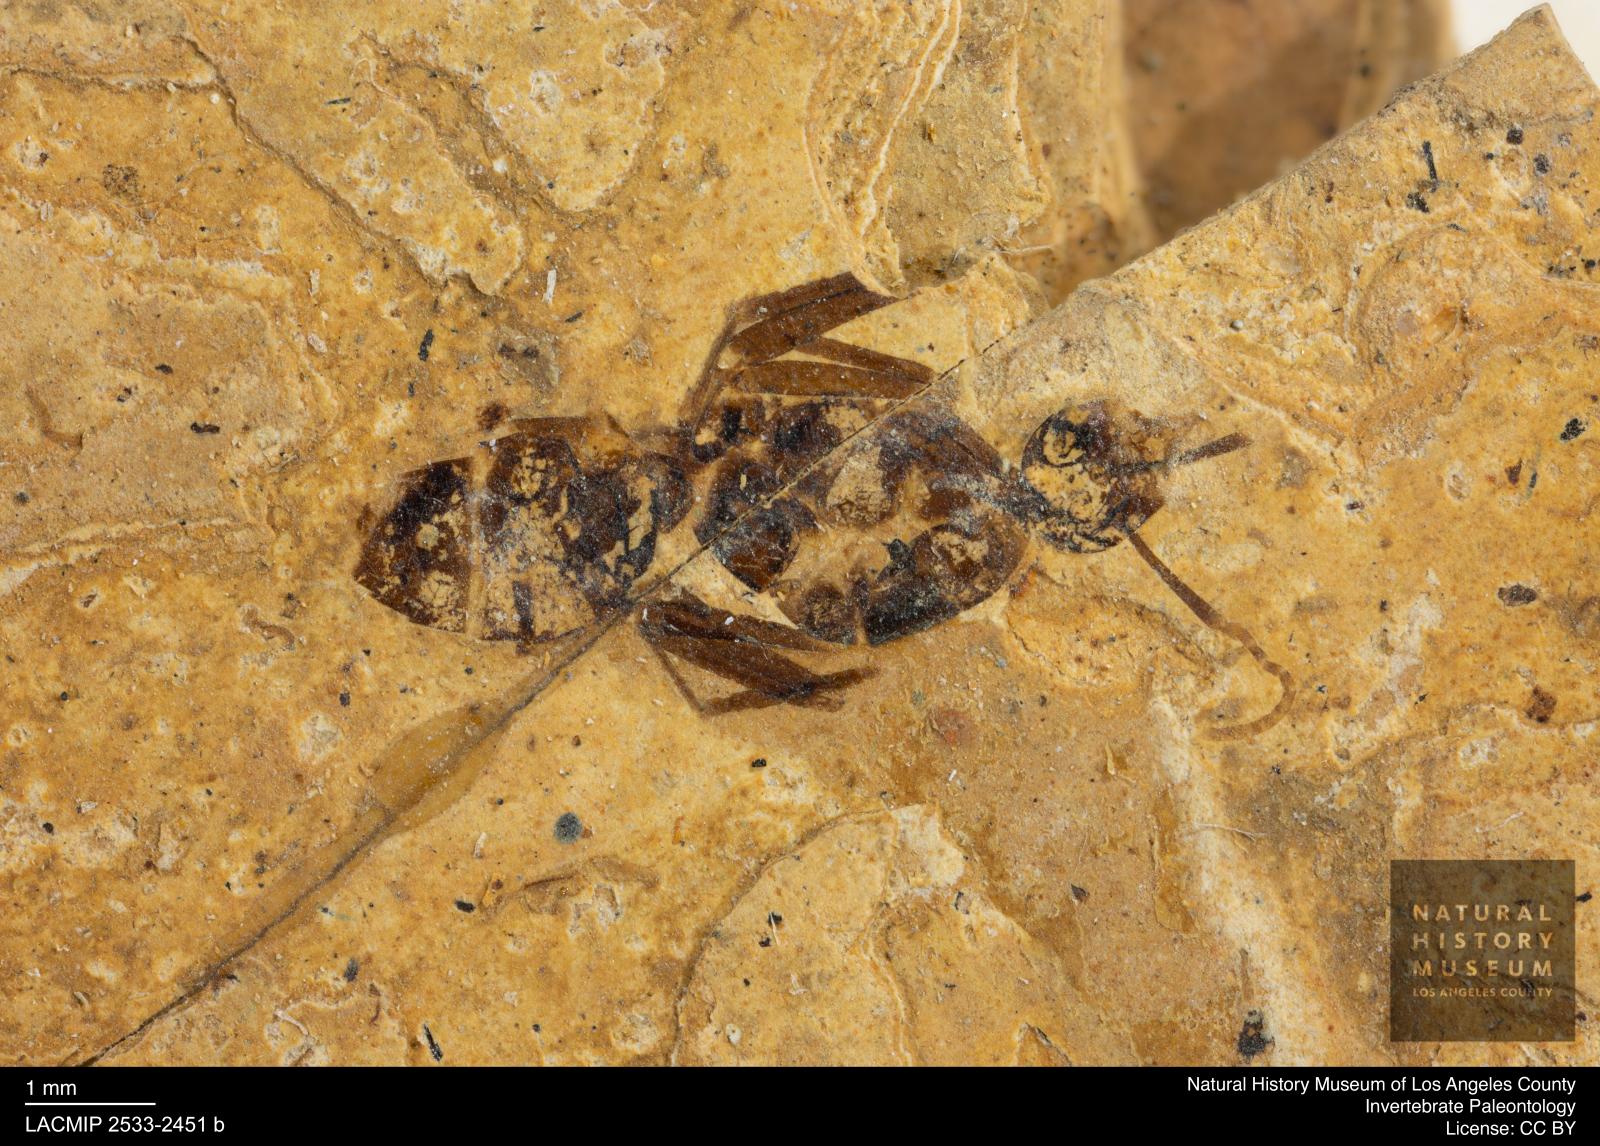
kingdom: Animalia
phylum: Arthropoda
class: Insecta
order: Hymenoptera
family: Formicidae
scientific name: Formicidae
